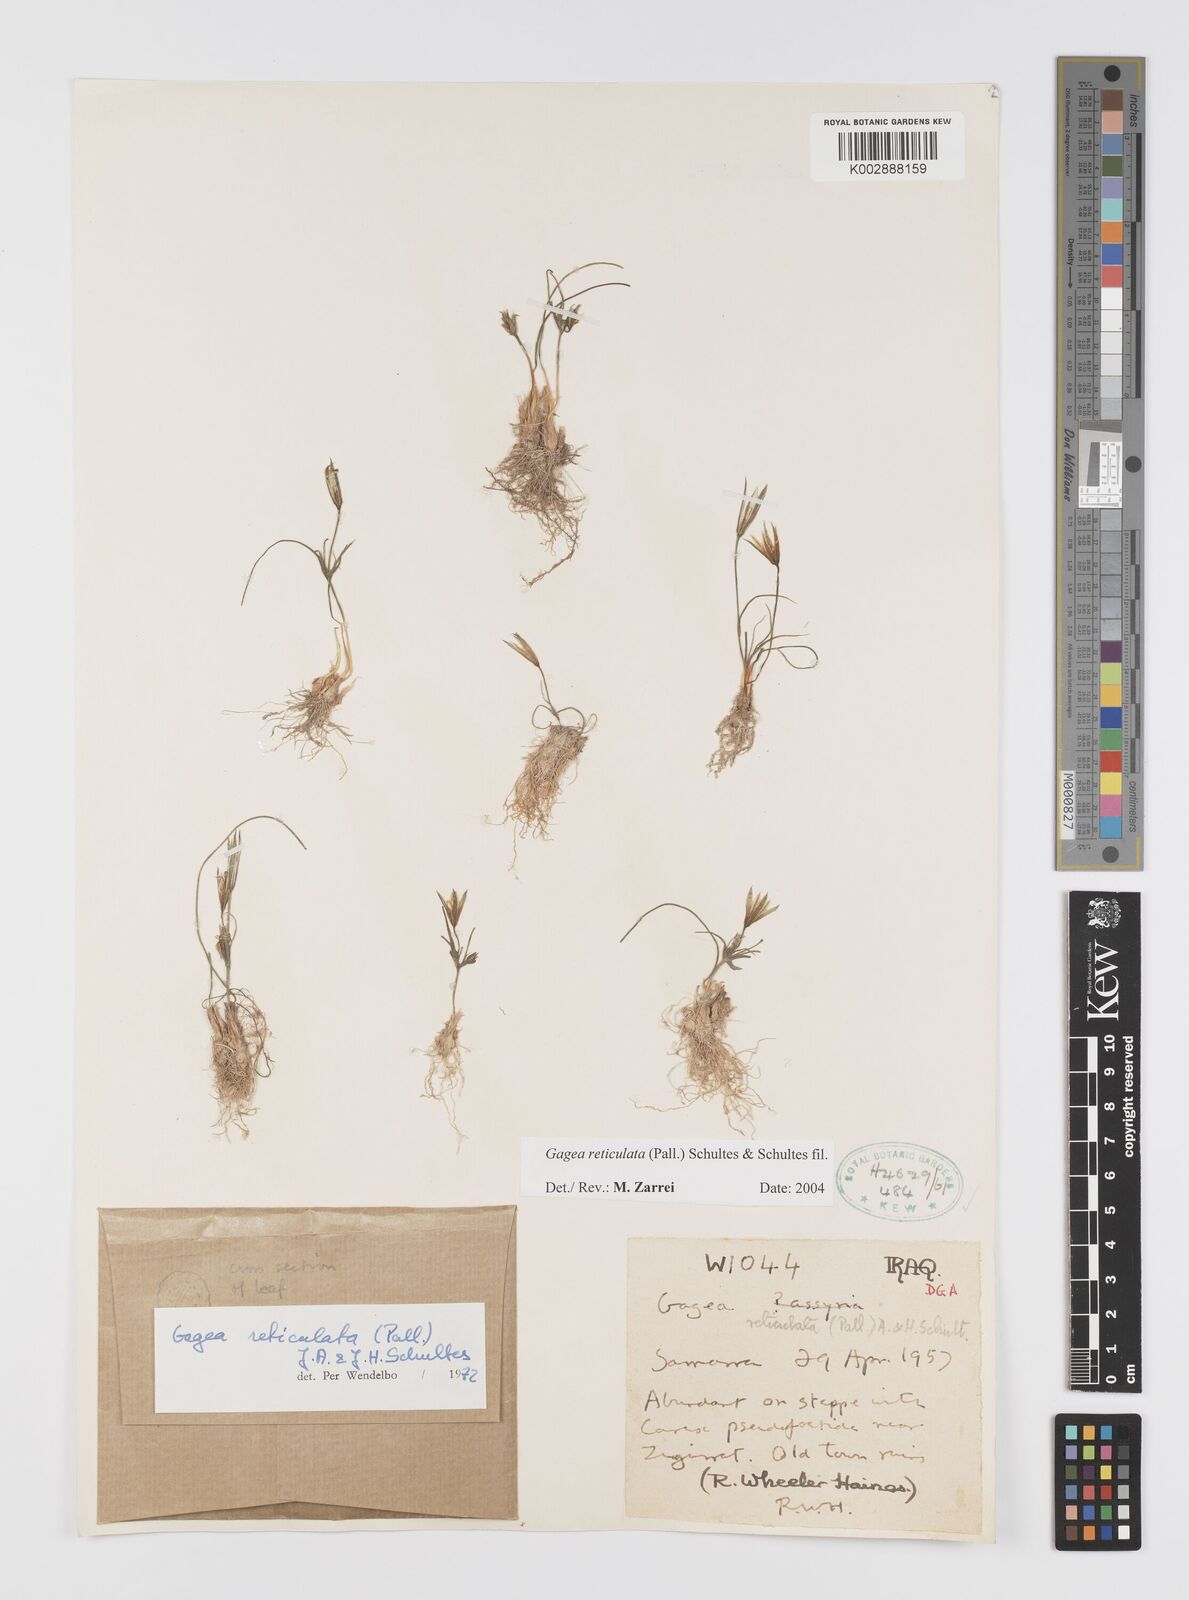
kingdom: Plantae
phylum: Tracheophyta
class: Liliopsida
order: Liliales
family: Liliaceae
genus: Gagea
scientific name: Gagea reticulata
